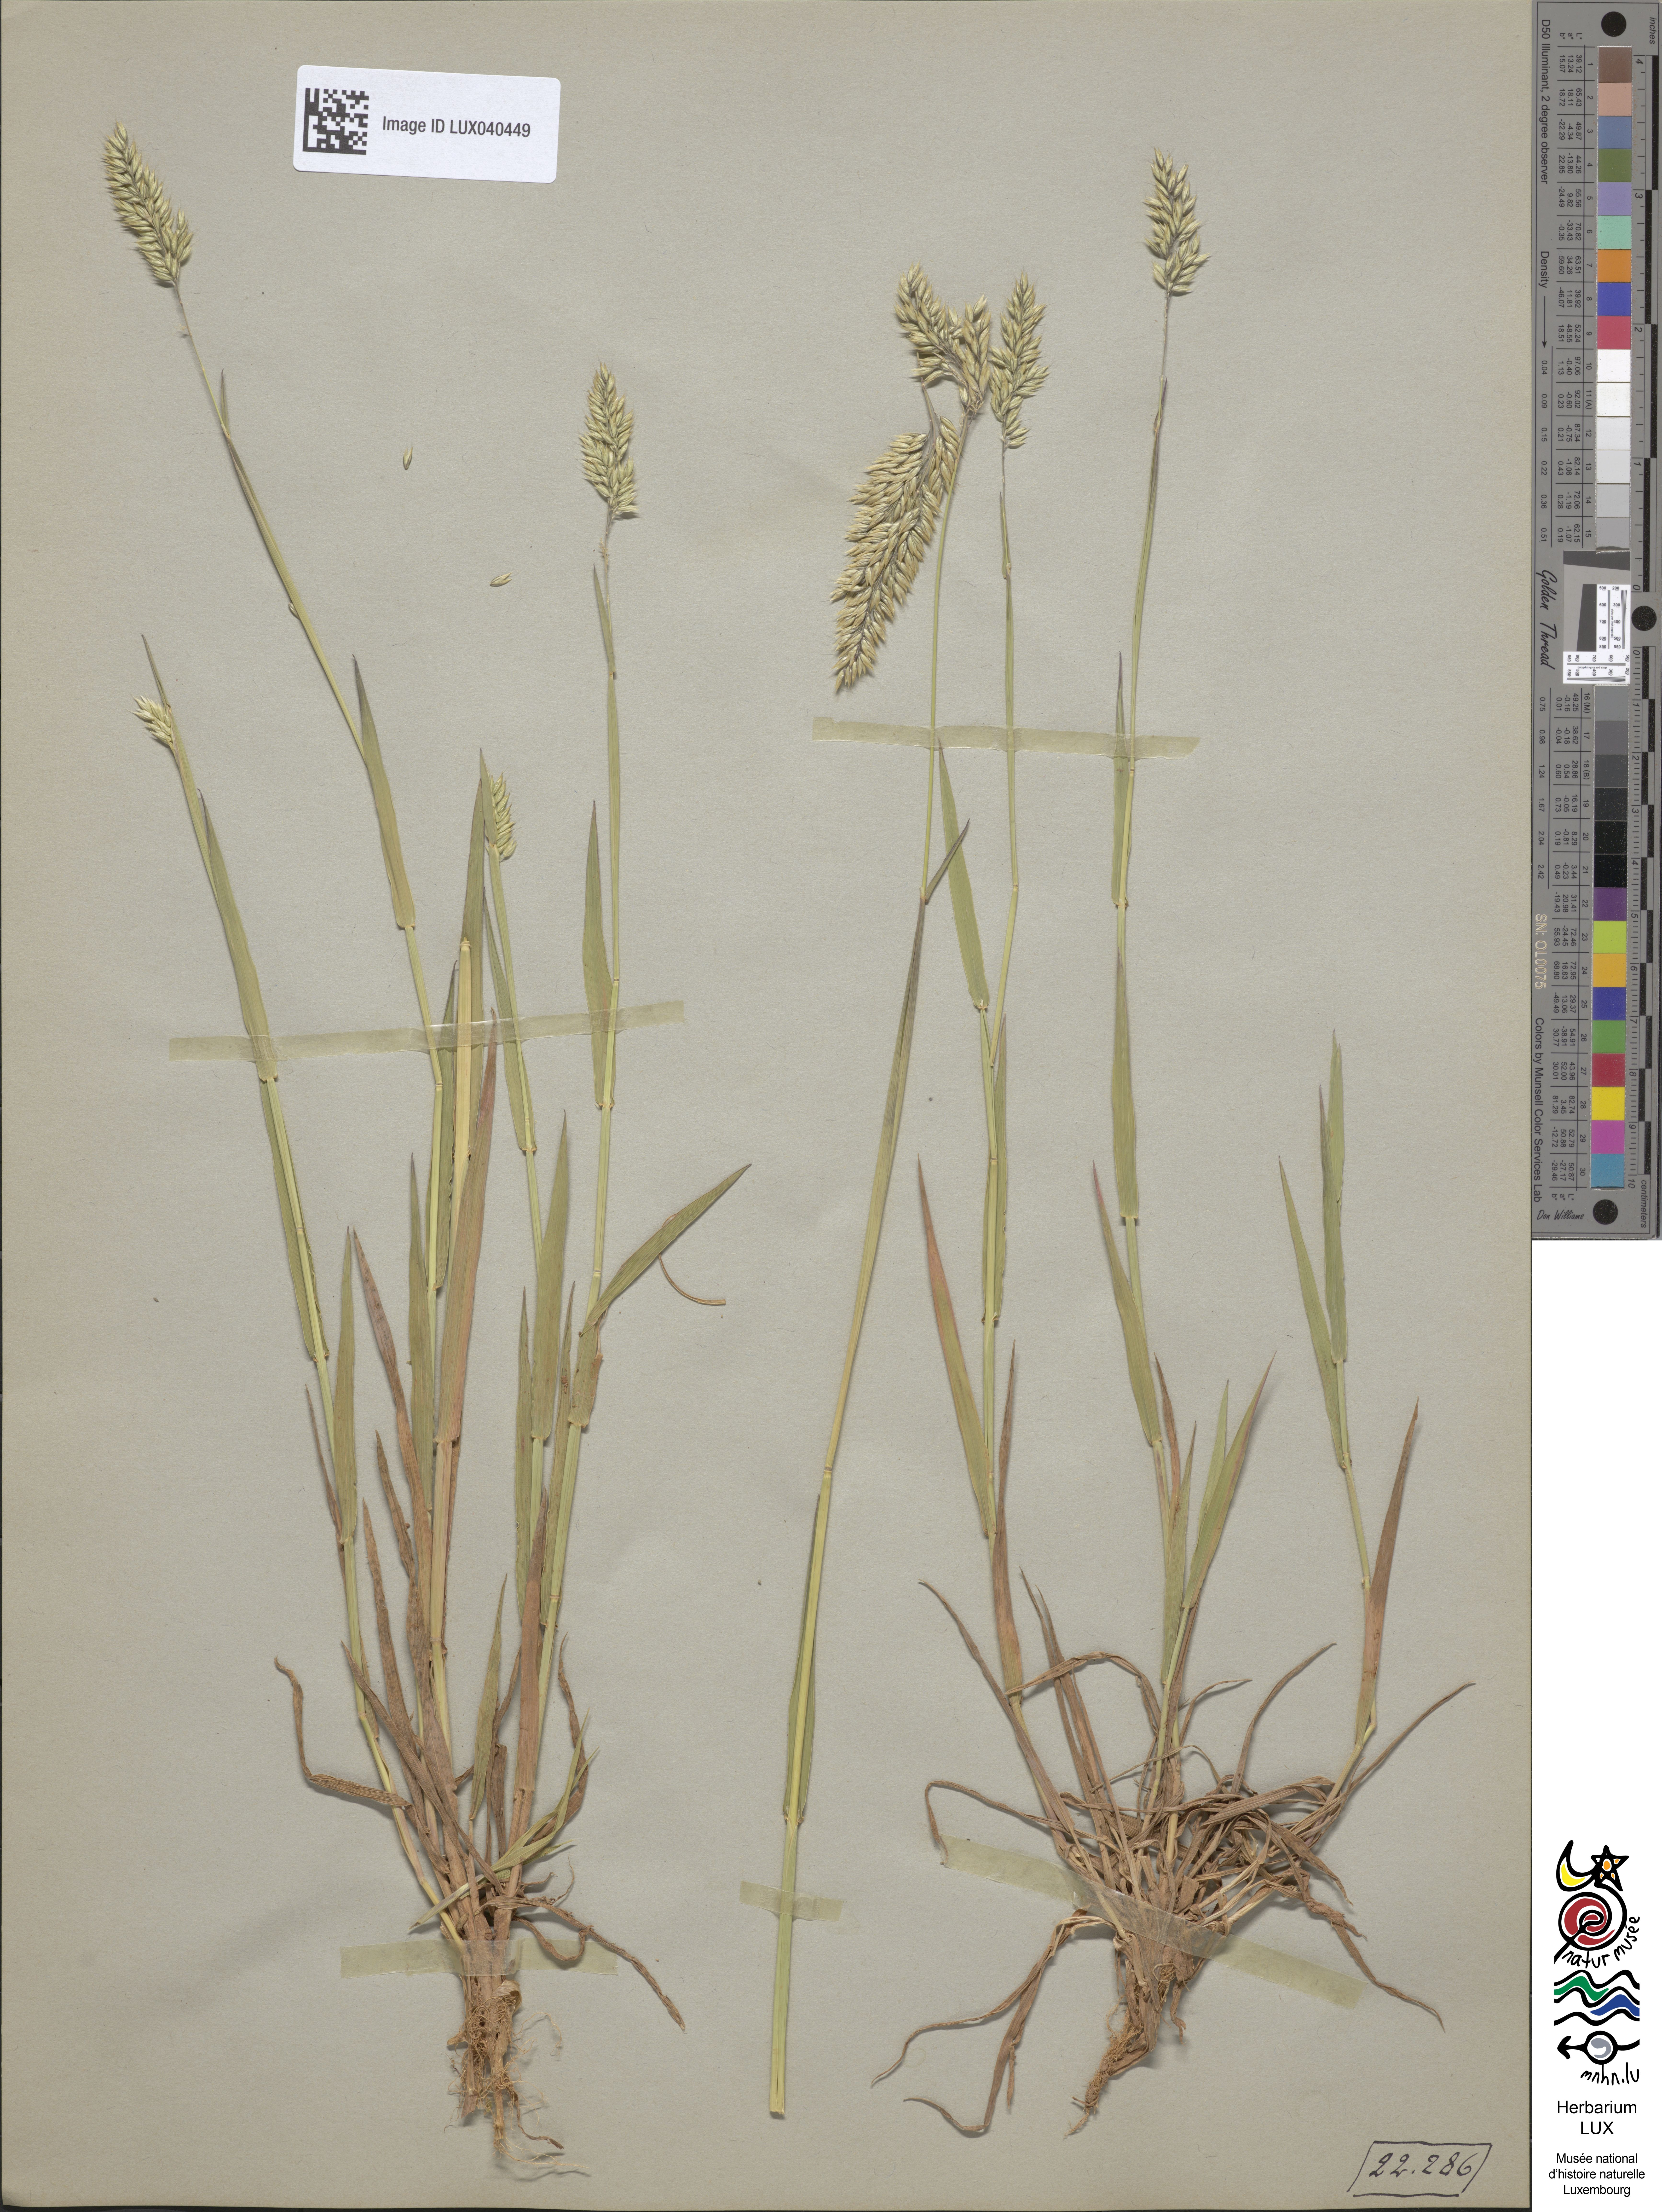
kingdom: Plantae
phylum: Tracheophyta
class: Liliopsida
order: Poales
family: Poaceae
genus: Holcus
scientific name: Holcus mollis
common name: Creeping velvetgrass
